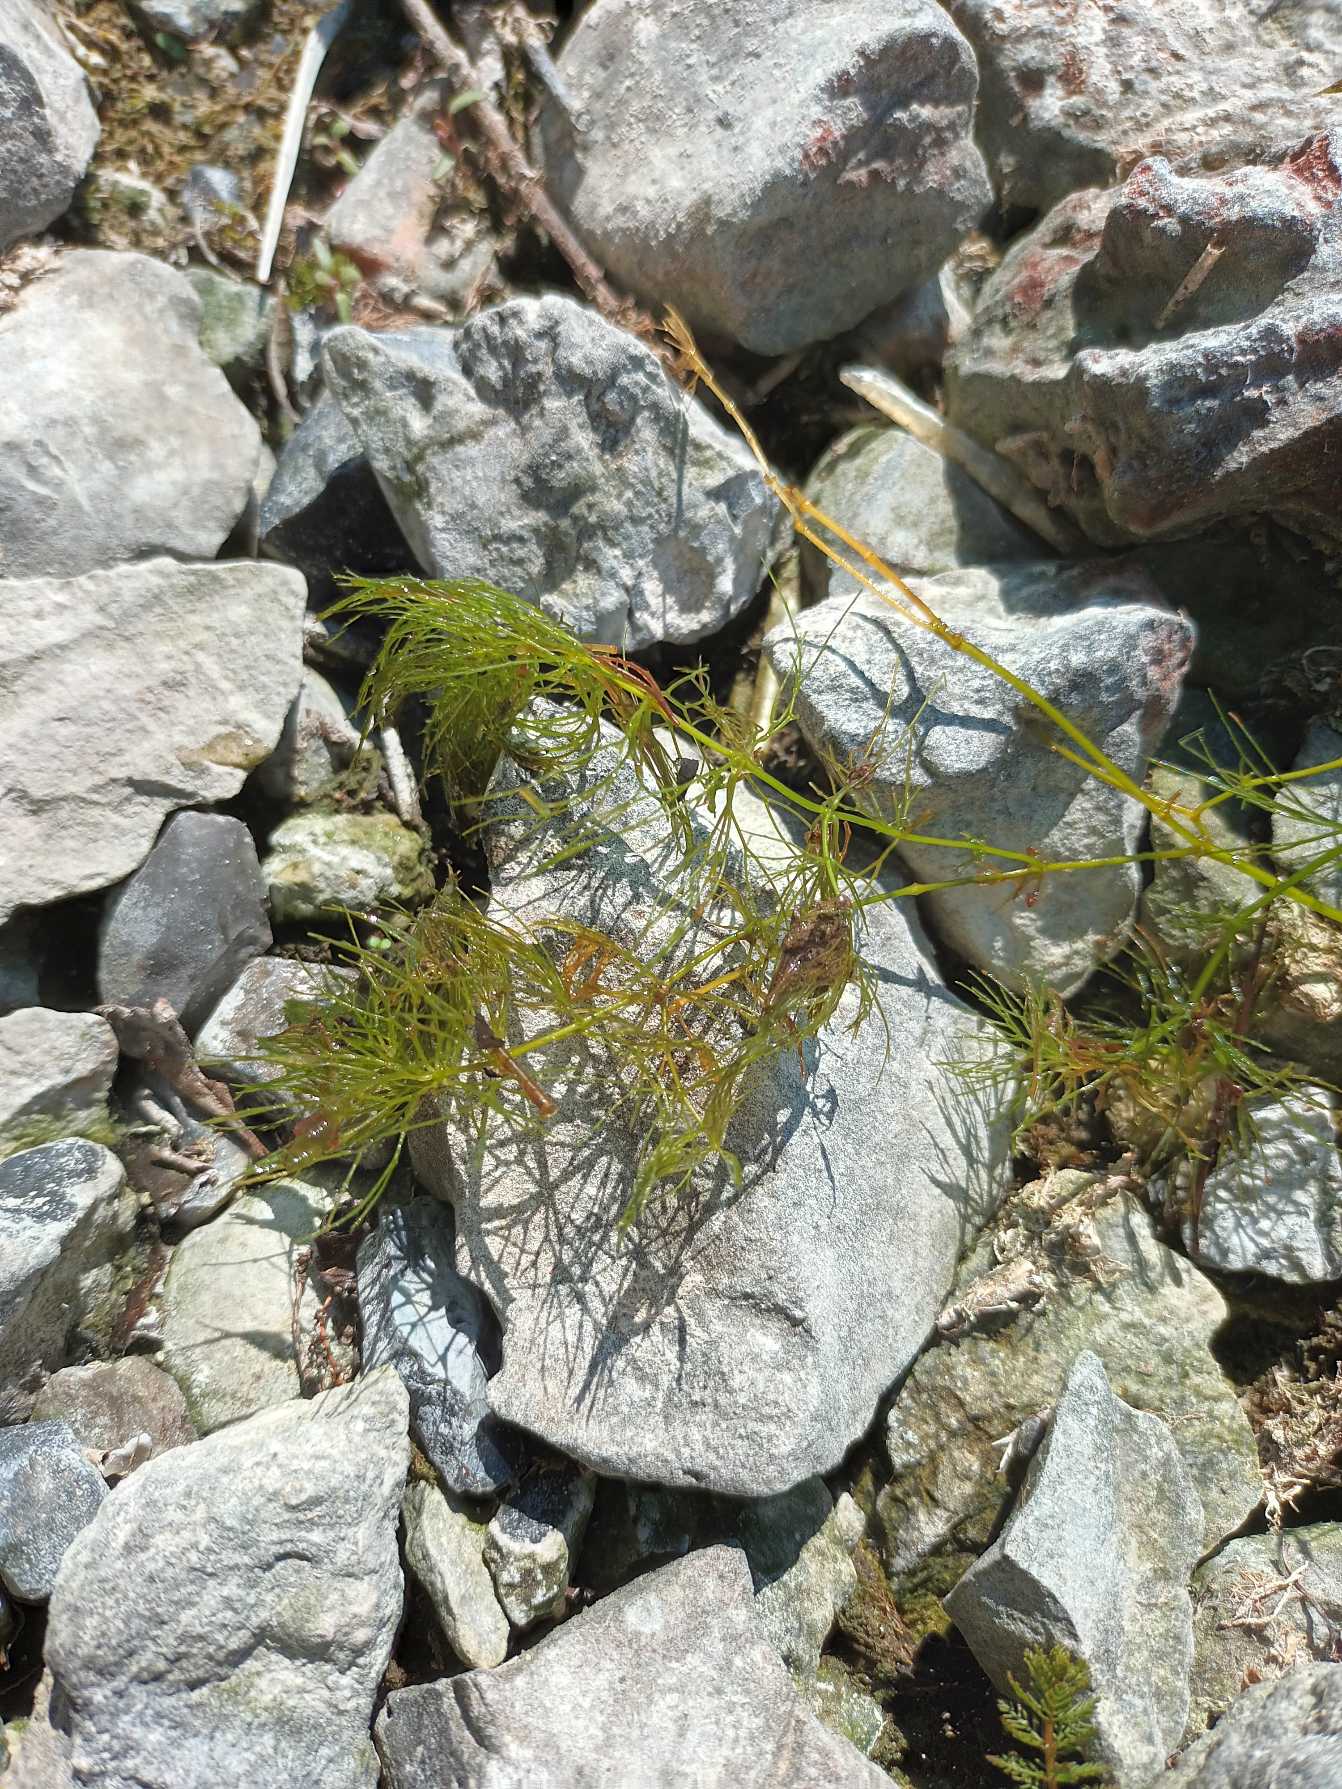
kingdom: Plantae
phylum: Tracheophyta
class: Magnoliopsida
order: Ceratophyllales
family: Ceratophyllaceae
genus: Ceratophyllum
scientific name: Ceratophyllum submersum
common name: Tornløs hornblad
